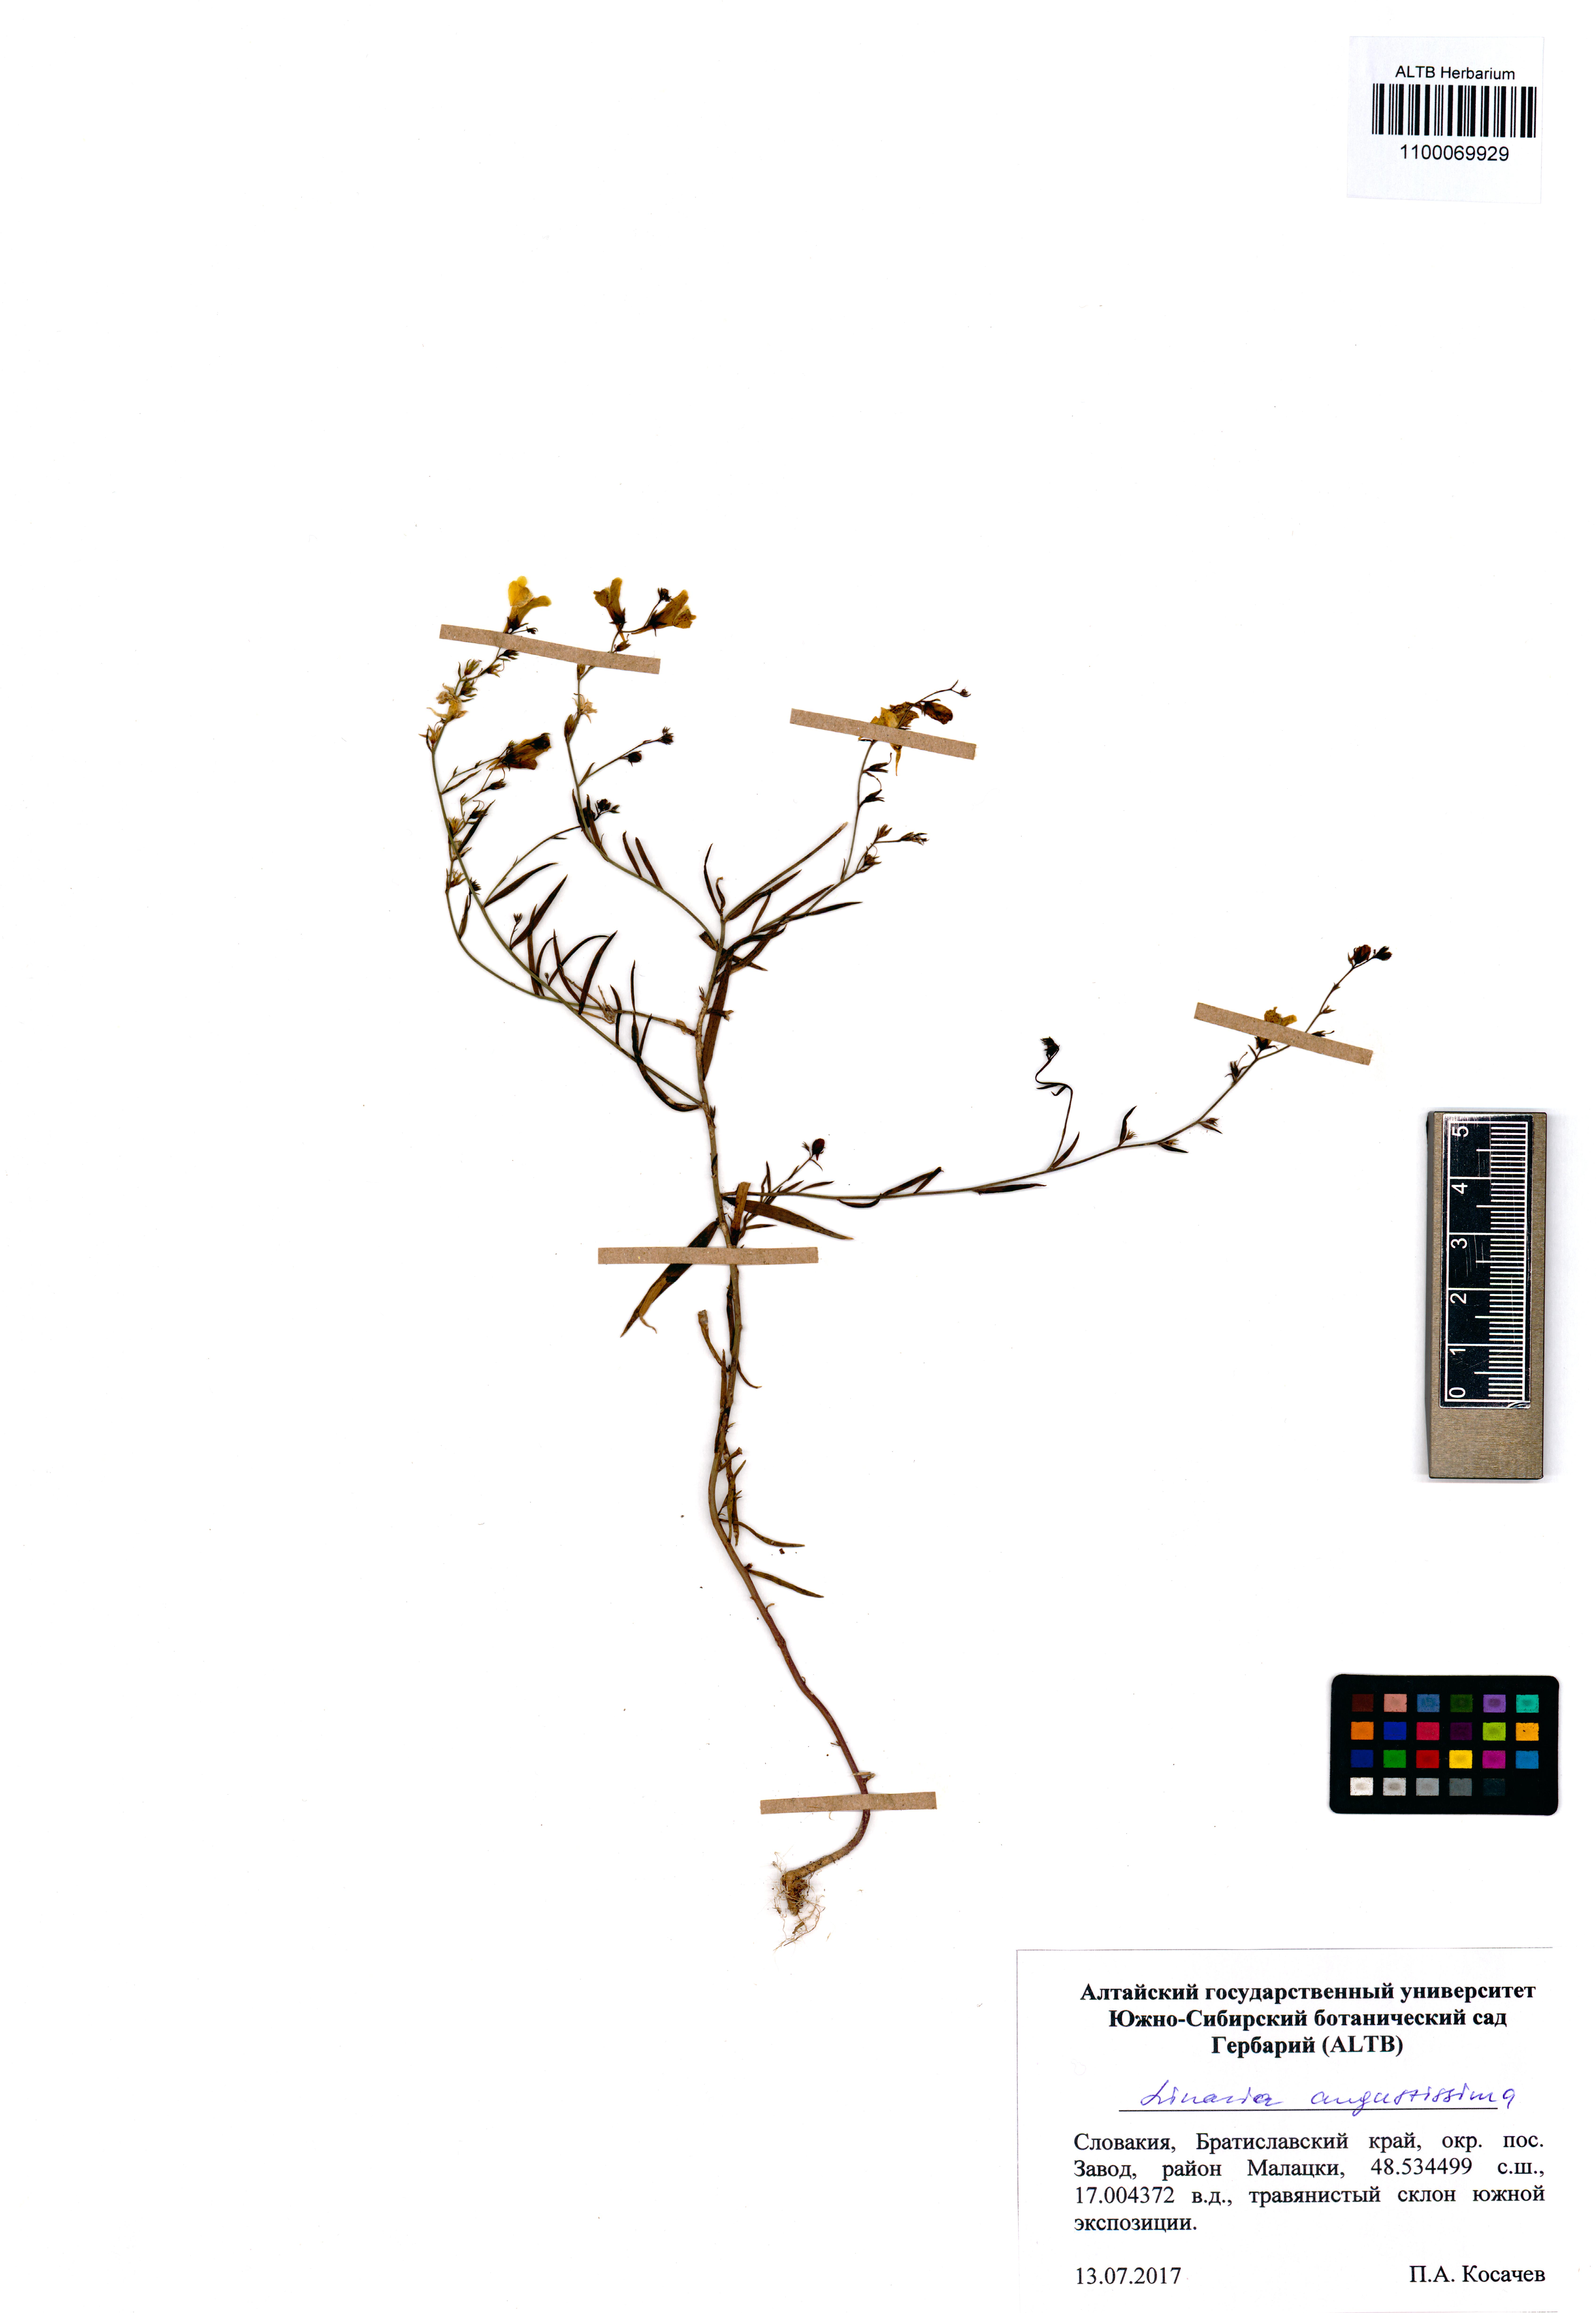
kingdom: Plantae
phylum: Tracheophyta
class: Magnoliopsida
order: Lamiales
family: Plantaginaceae
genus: Linaria
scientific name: Linaria angustissima
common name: Italian toadflax
